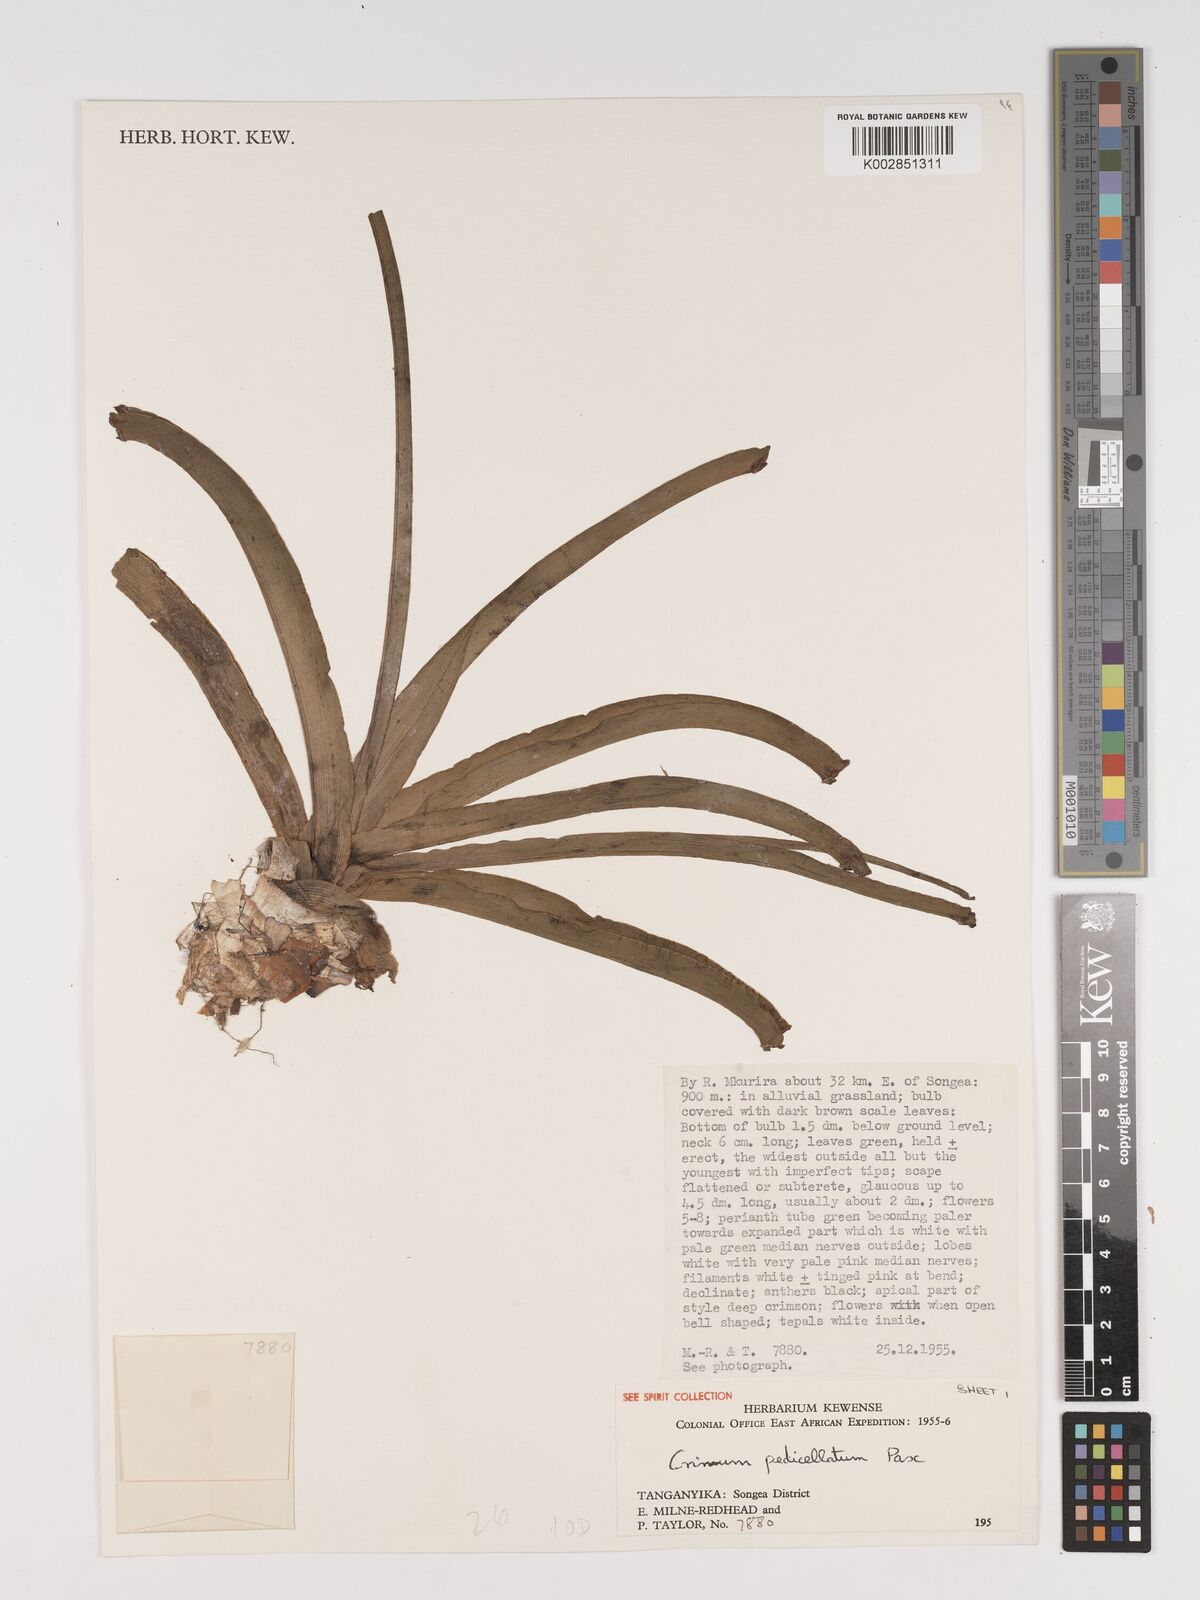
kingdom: Plantae
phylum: Tracheophyta
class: Liliopsida
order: Asparagales
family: Amaryllidaceae
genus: Crinum
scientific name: Crinum macowanii
